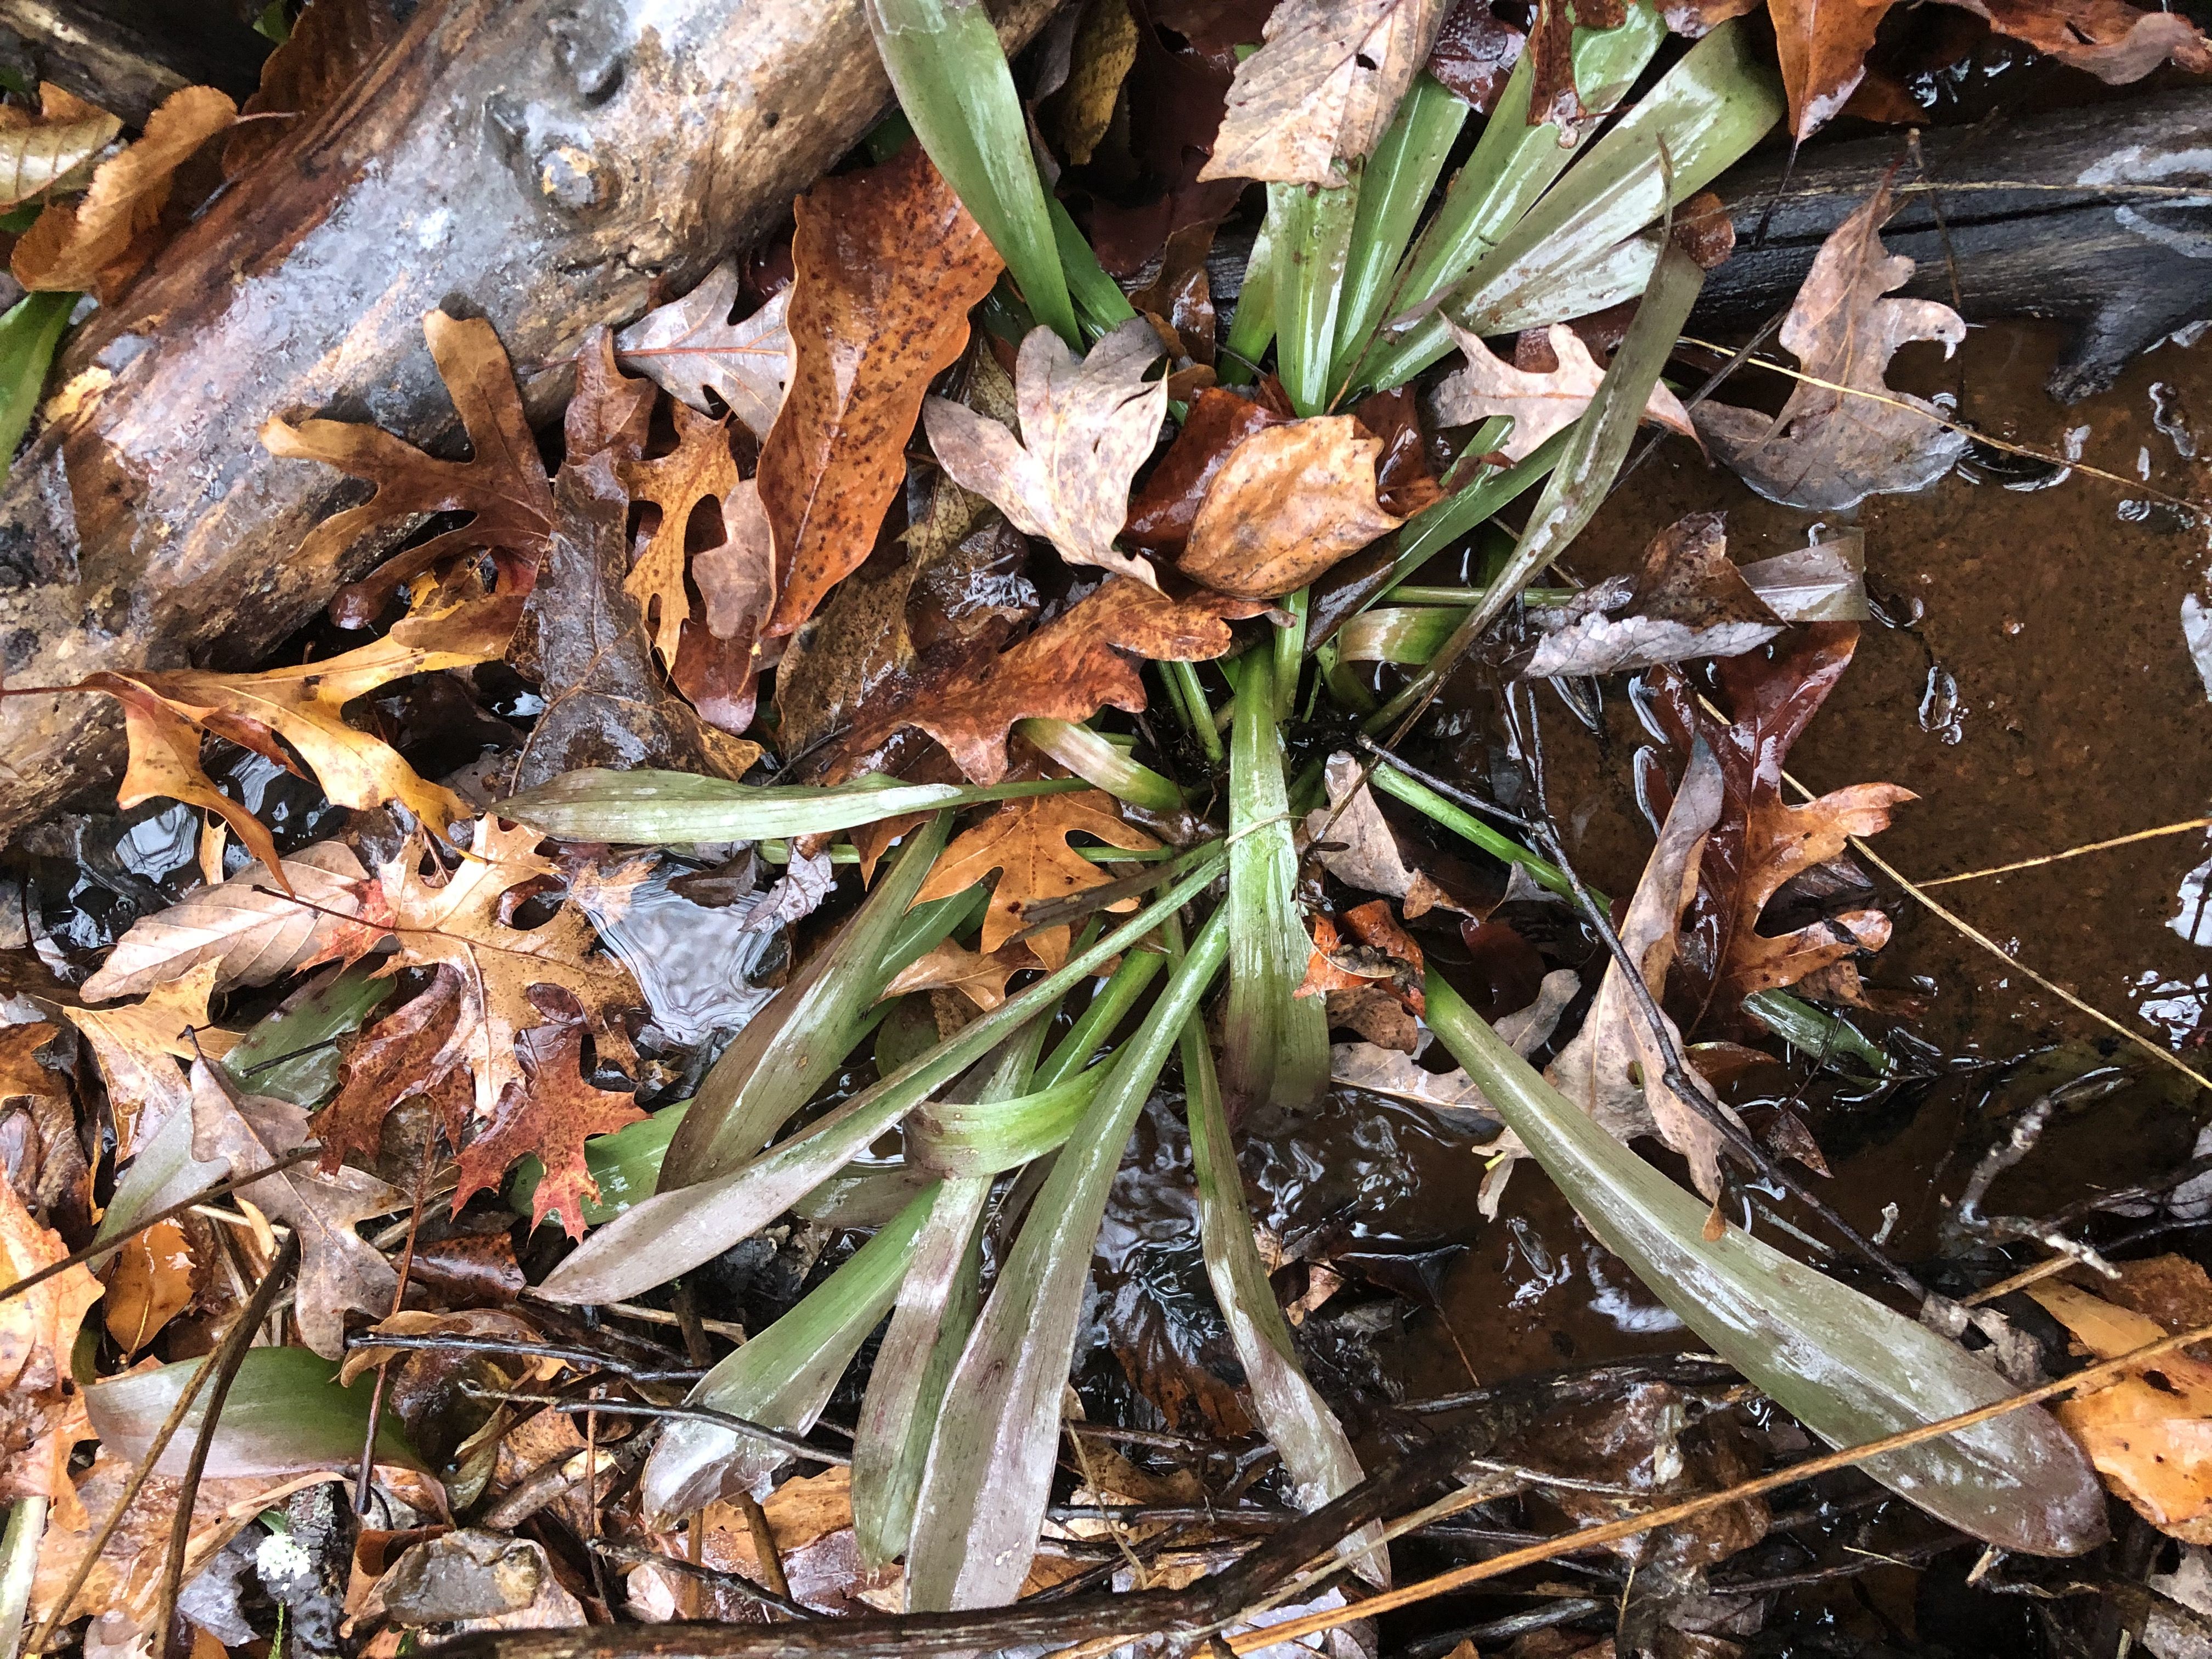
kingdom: Plantae
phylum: Tracheophyta
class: Liliopsida
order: Liliales
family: Melanthiaceae
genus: Helonias
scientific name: Helonias bullata
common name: Swamp Pink
